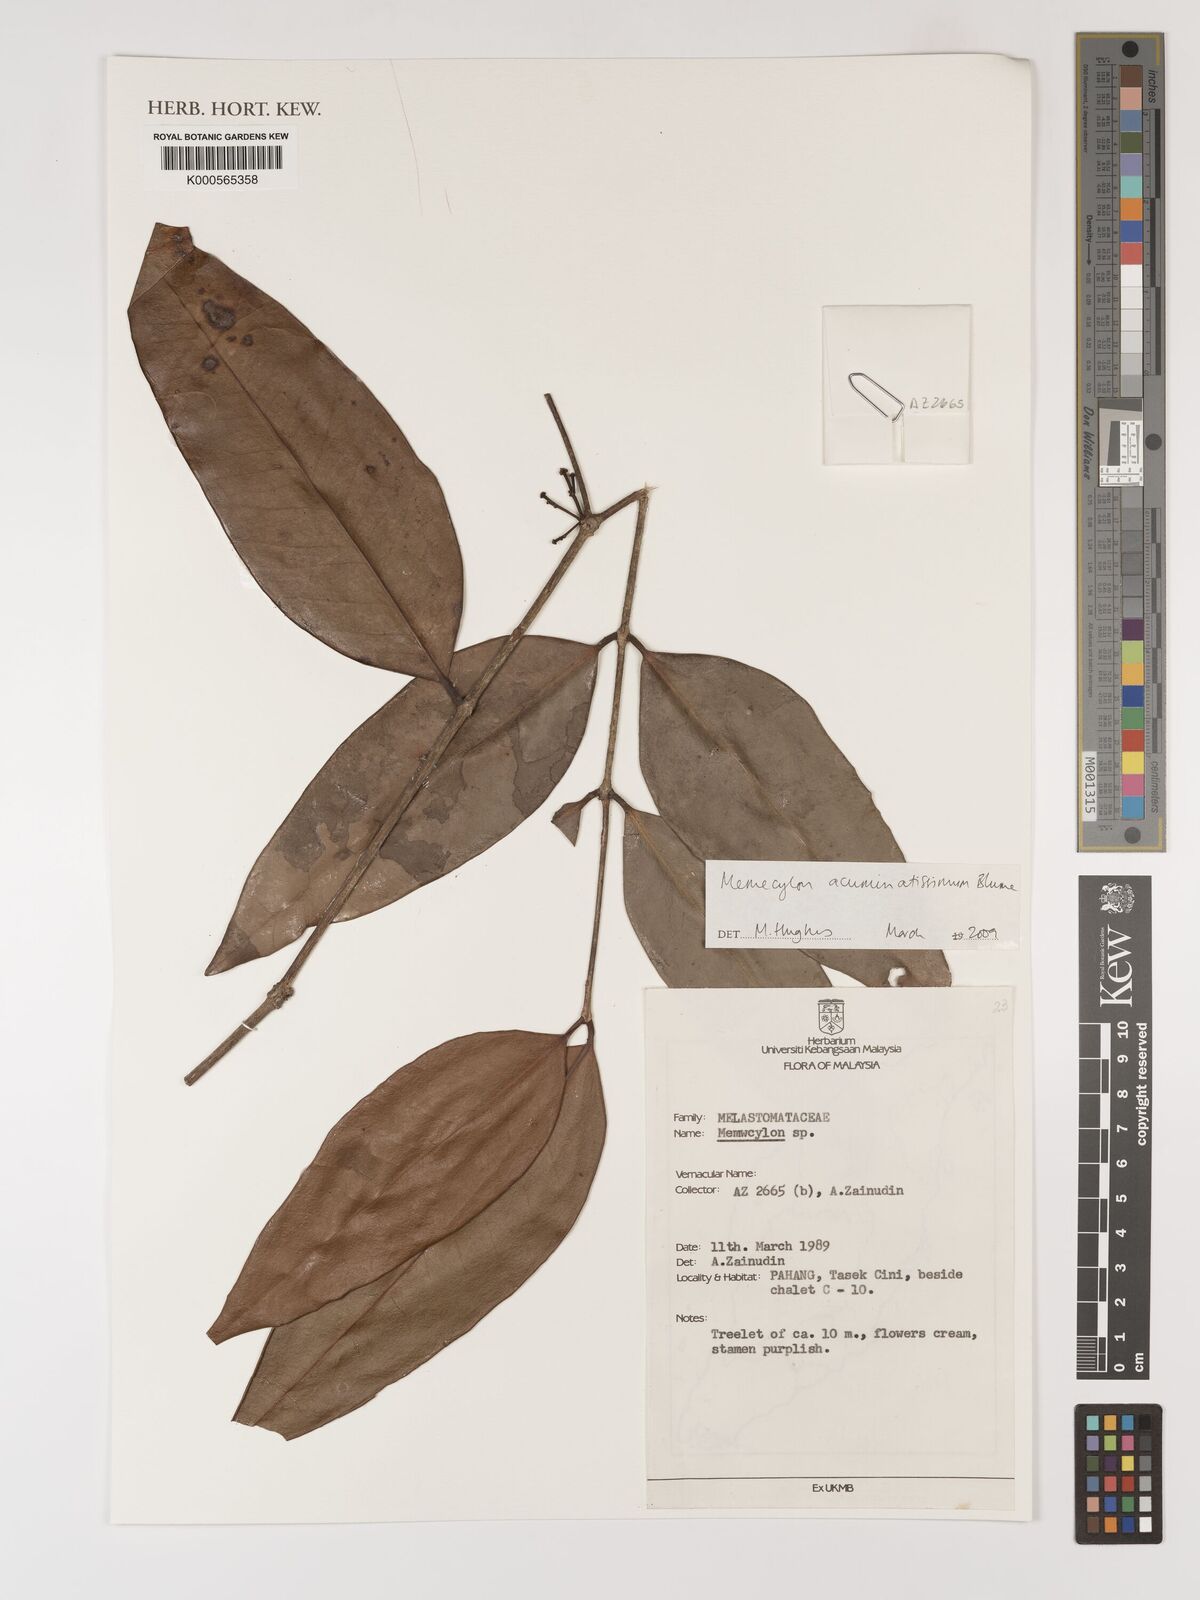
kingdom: Plantae
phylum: Tracheophyta
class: Magnoliopsida
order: Myrtales
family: Melastomataceae
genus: Memecylon
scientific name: Memecylon acuminatissimum
